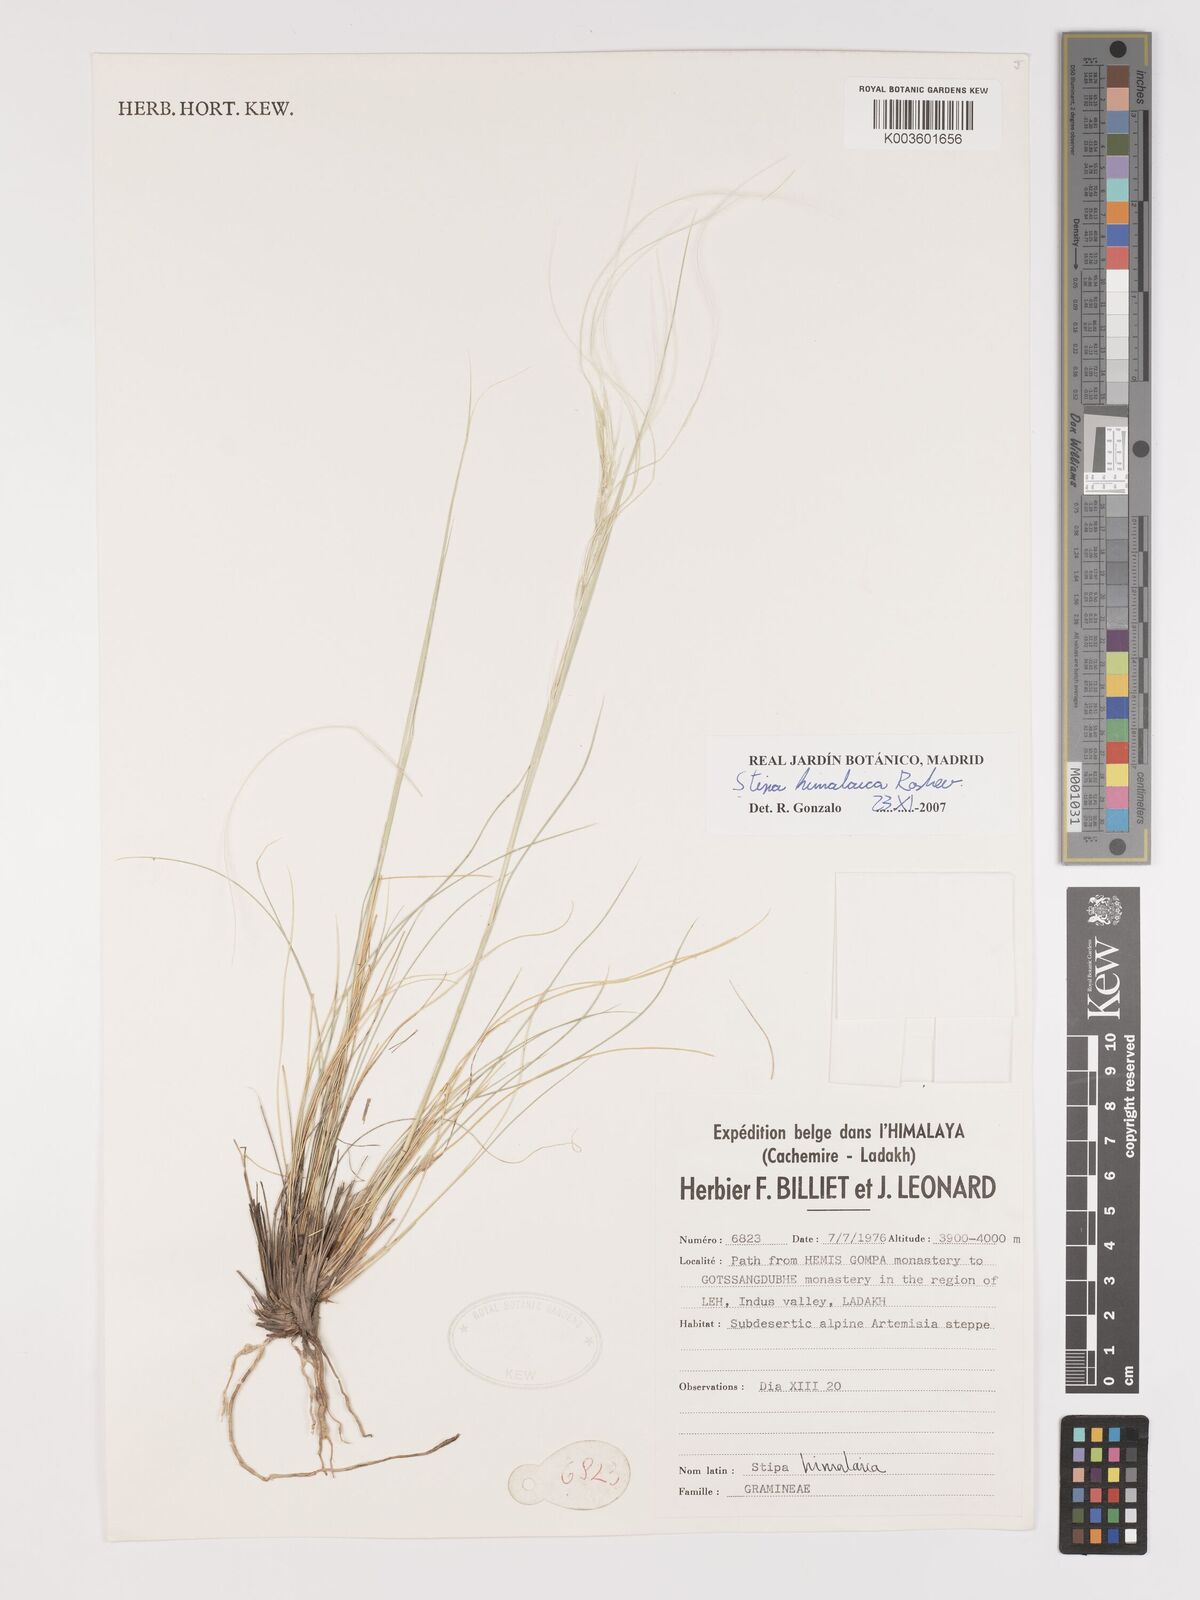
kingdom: Plantae
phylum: Tracheophyta
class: Liliopsida
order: Poales
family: Poaceae
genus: Stipa
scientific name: Stipa himalaica
